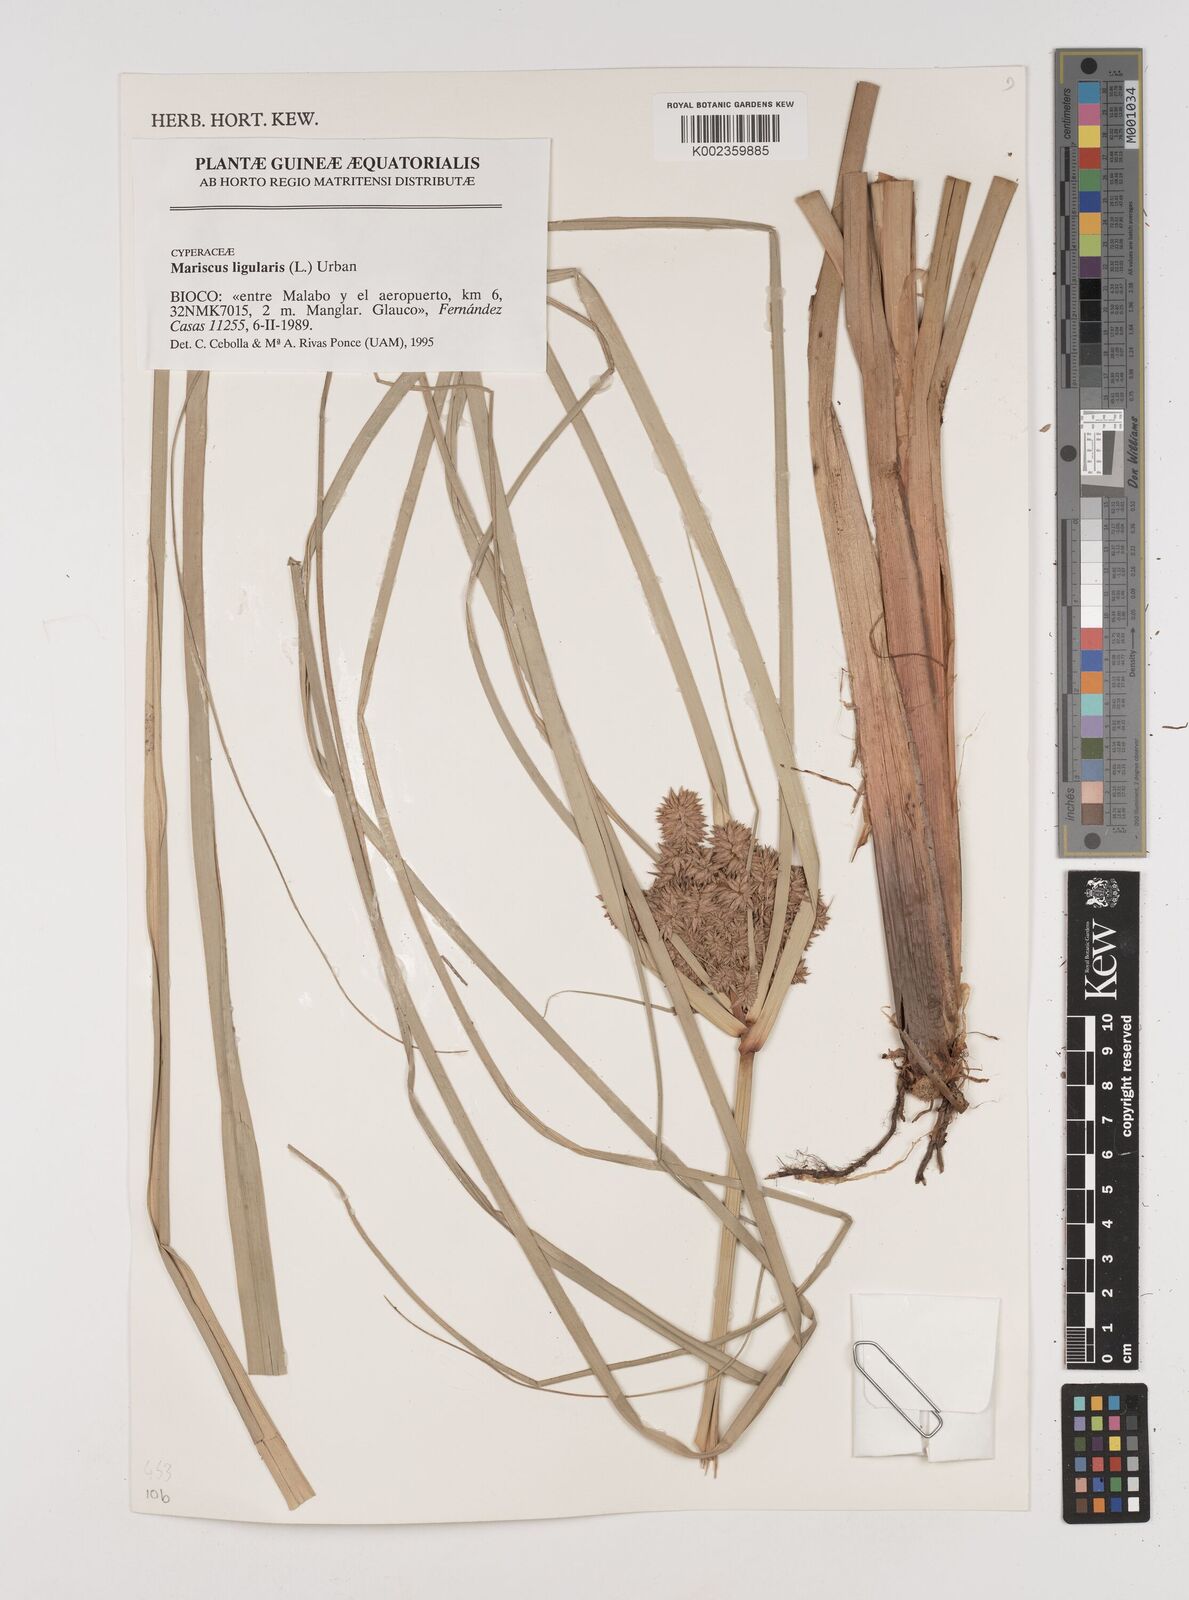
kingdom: Plantae
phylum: Tracheophyta
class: Liliopsida
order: Poales
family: Cyperaceae
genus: Cyperus
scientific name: Cyperus ligularis
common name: Swamp flat sedge
